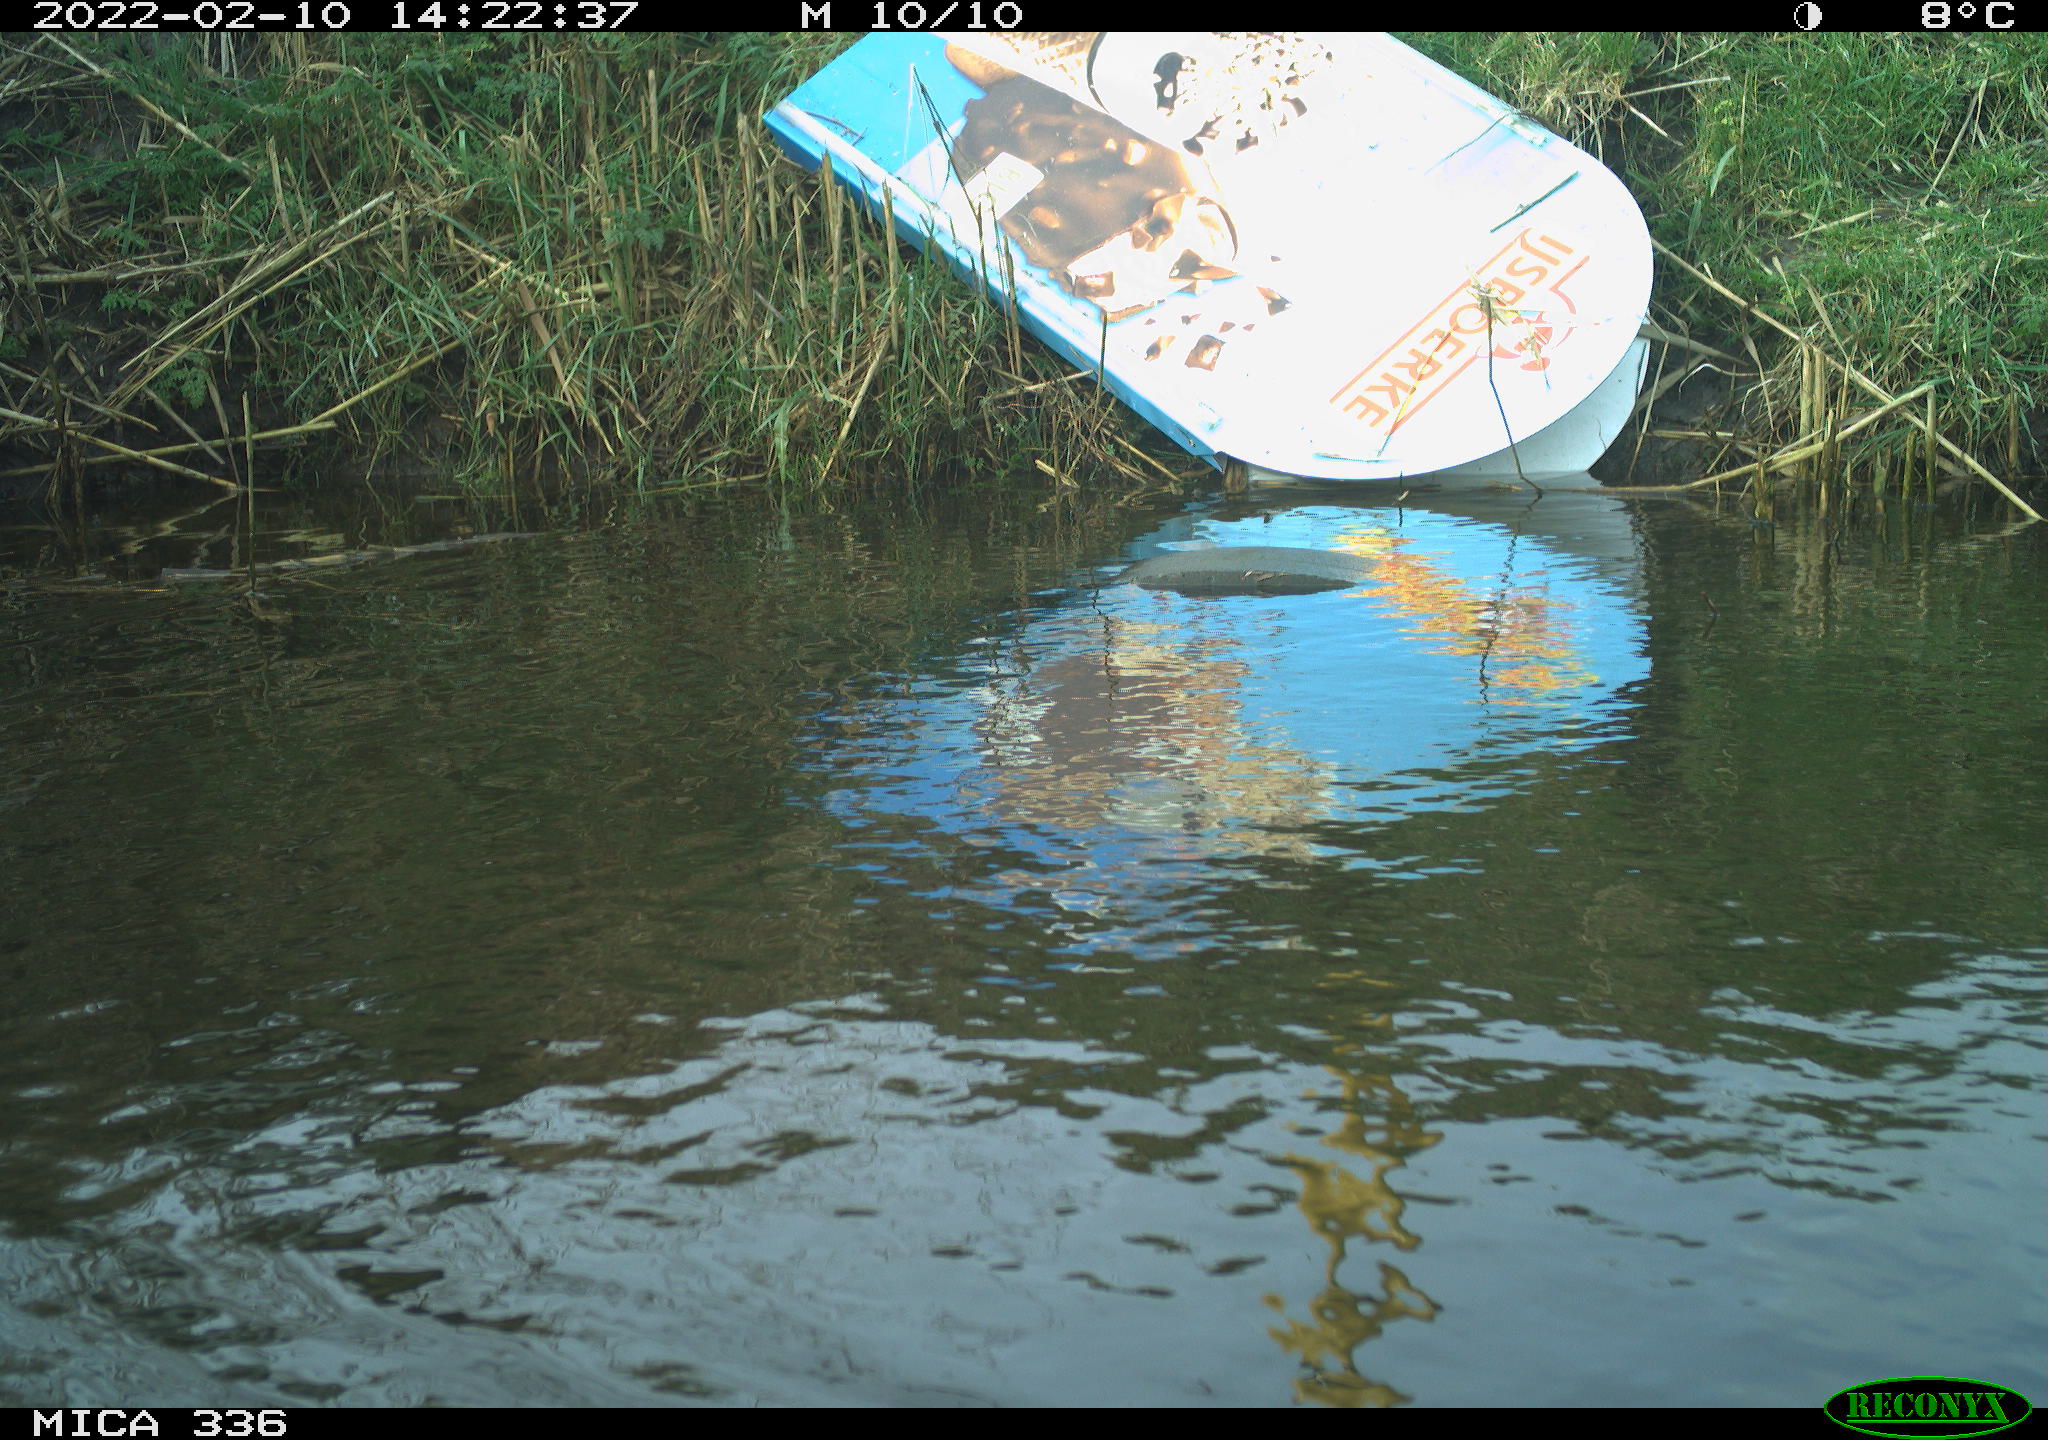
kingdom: Animalia
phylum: Chordata
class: Aves
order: Gruiformes
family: Rallidae
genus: Gallinula
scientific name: Gallinula chloropus
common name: Common moorhen
